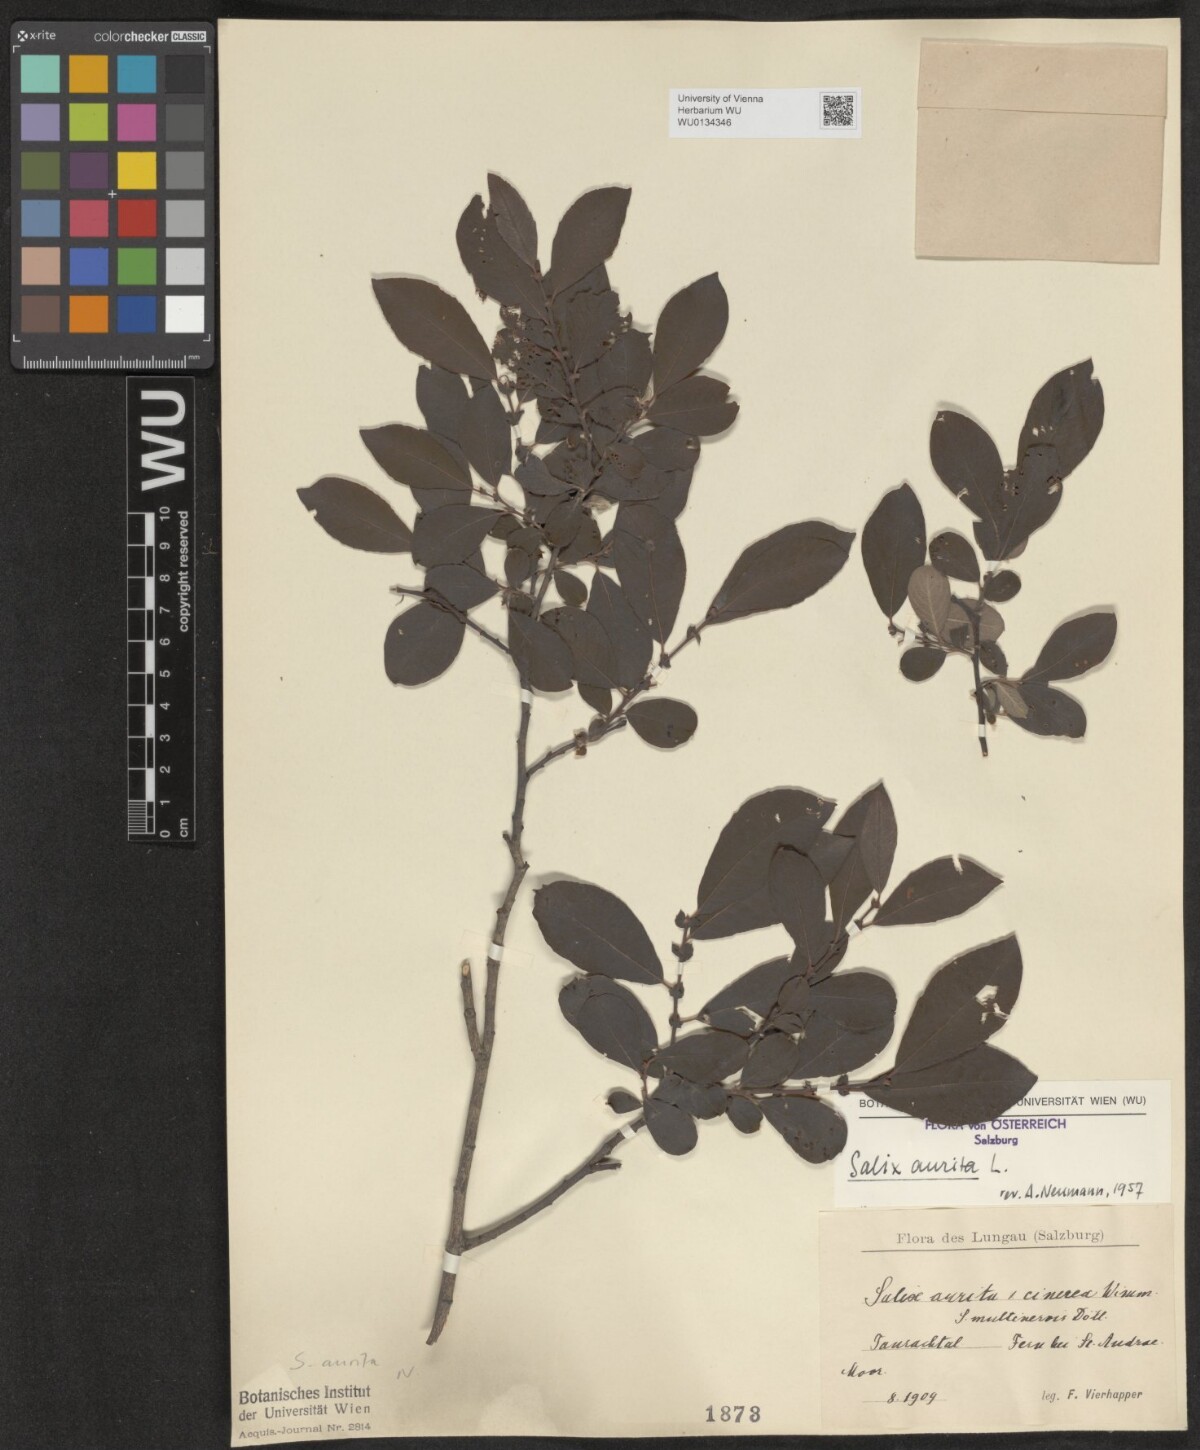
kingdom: Plantae
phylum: Tracheophyta
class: Magnoliopsida
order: Malpighiales
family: Salicaceae
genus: Salix
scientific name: Salix aurita
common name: Eared willow
